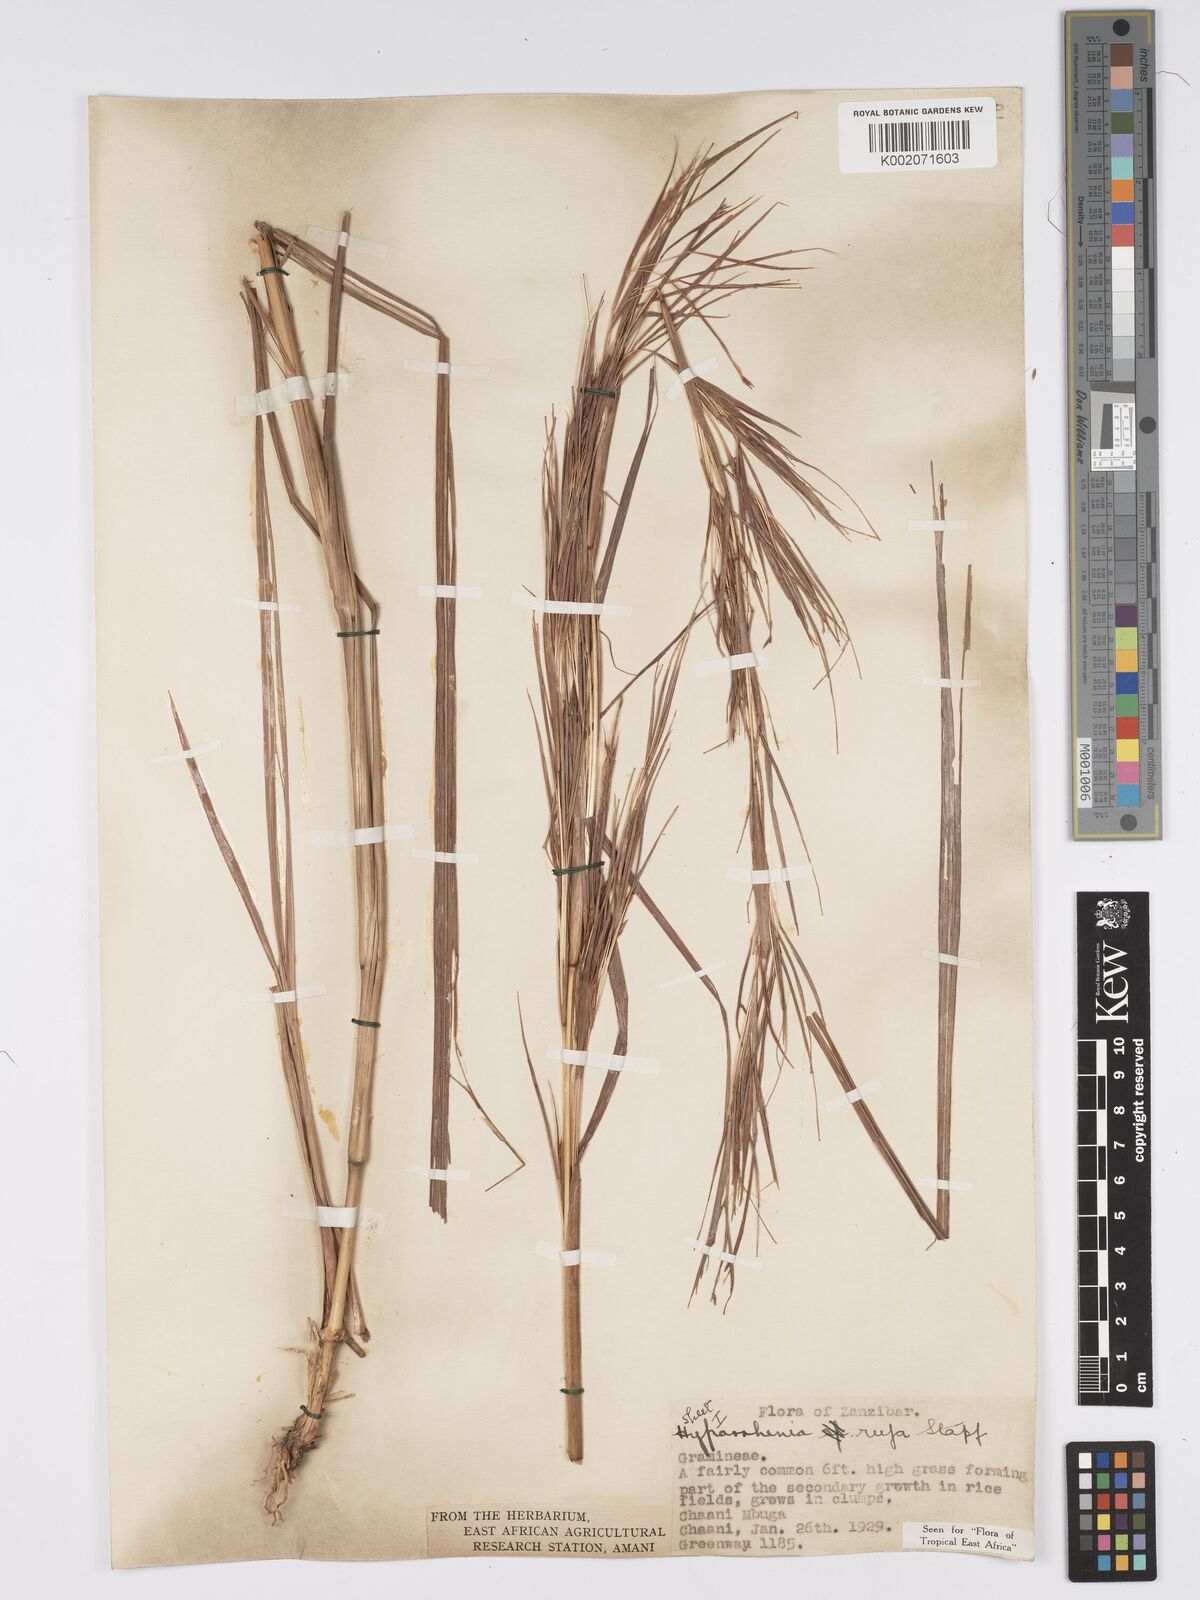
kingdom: Plantae
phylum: Tracheophyta
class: Liliopsida
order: Poales
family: Poaceae
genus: Hyparrhenia
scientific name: Hyparrhenia rufa
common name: Jaraguagrass
